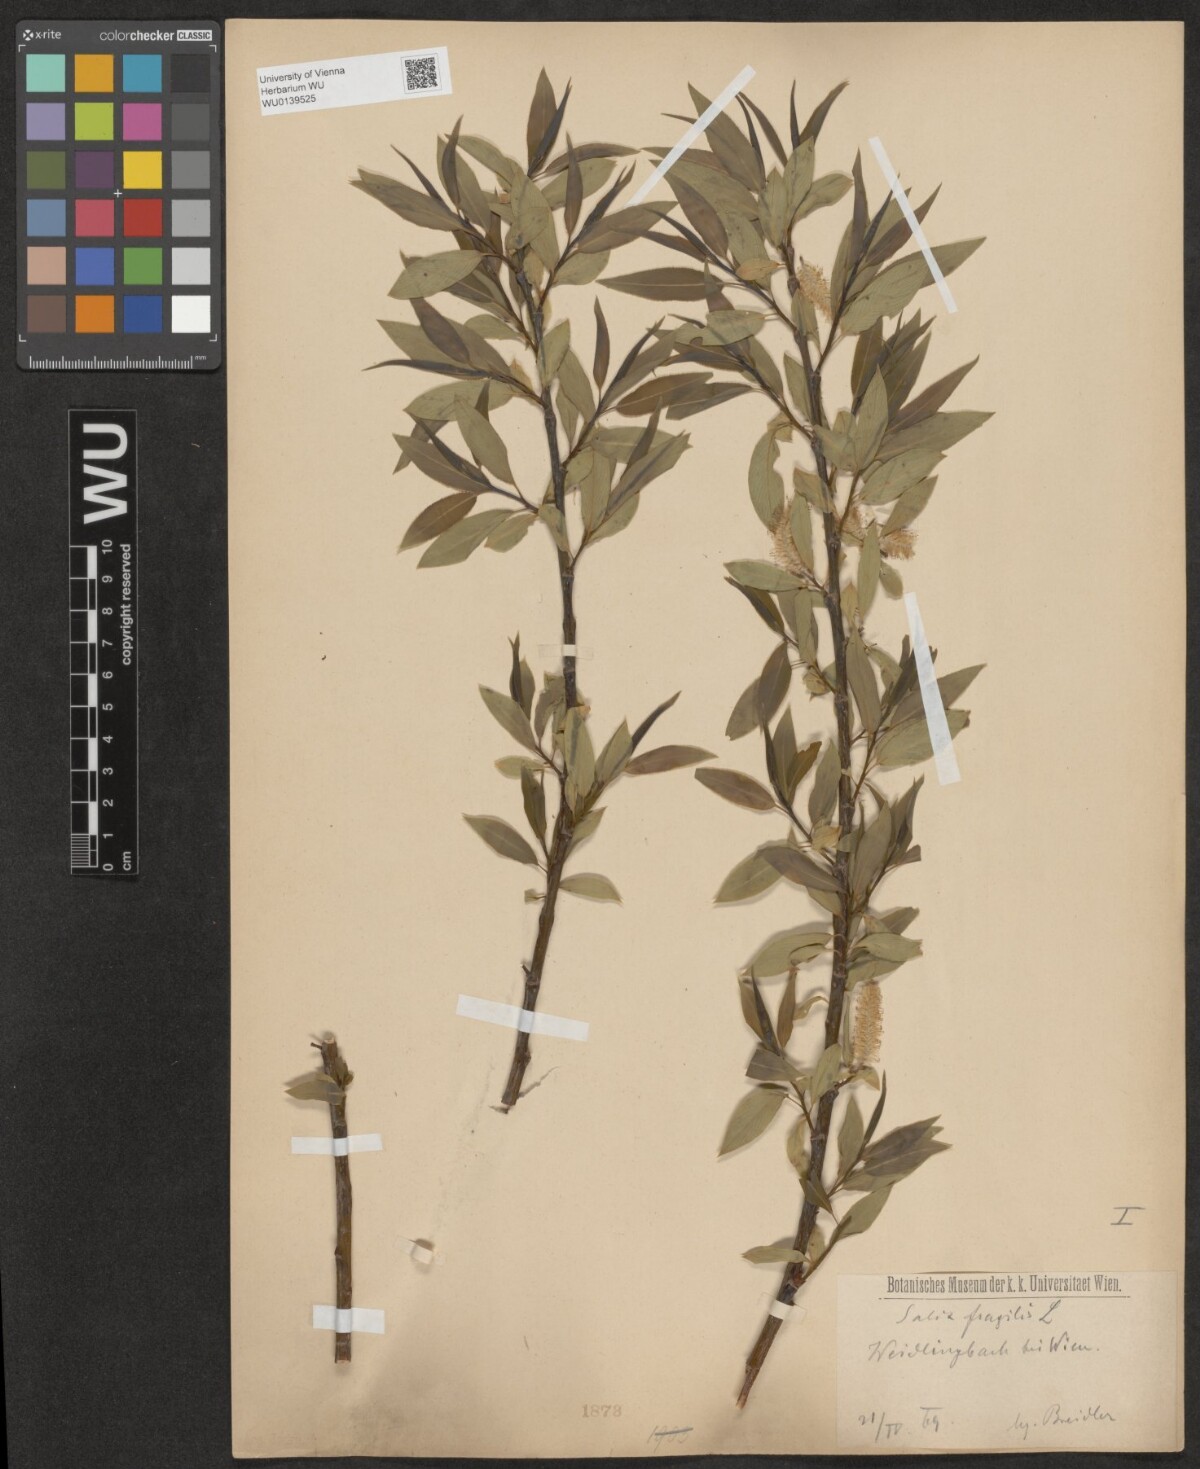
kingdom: Plantae
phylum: Tracheophyta
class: Magnoliopsida
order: Malpighiales
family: Salicaceae
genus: Salix
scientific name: Salix rubens
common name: Hybrid crack willow
